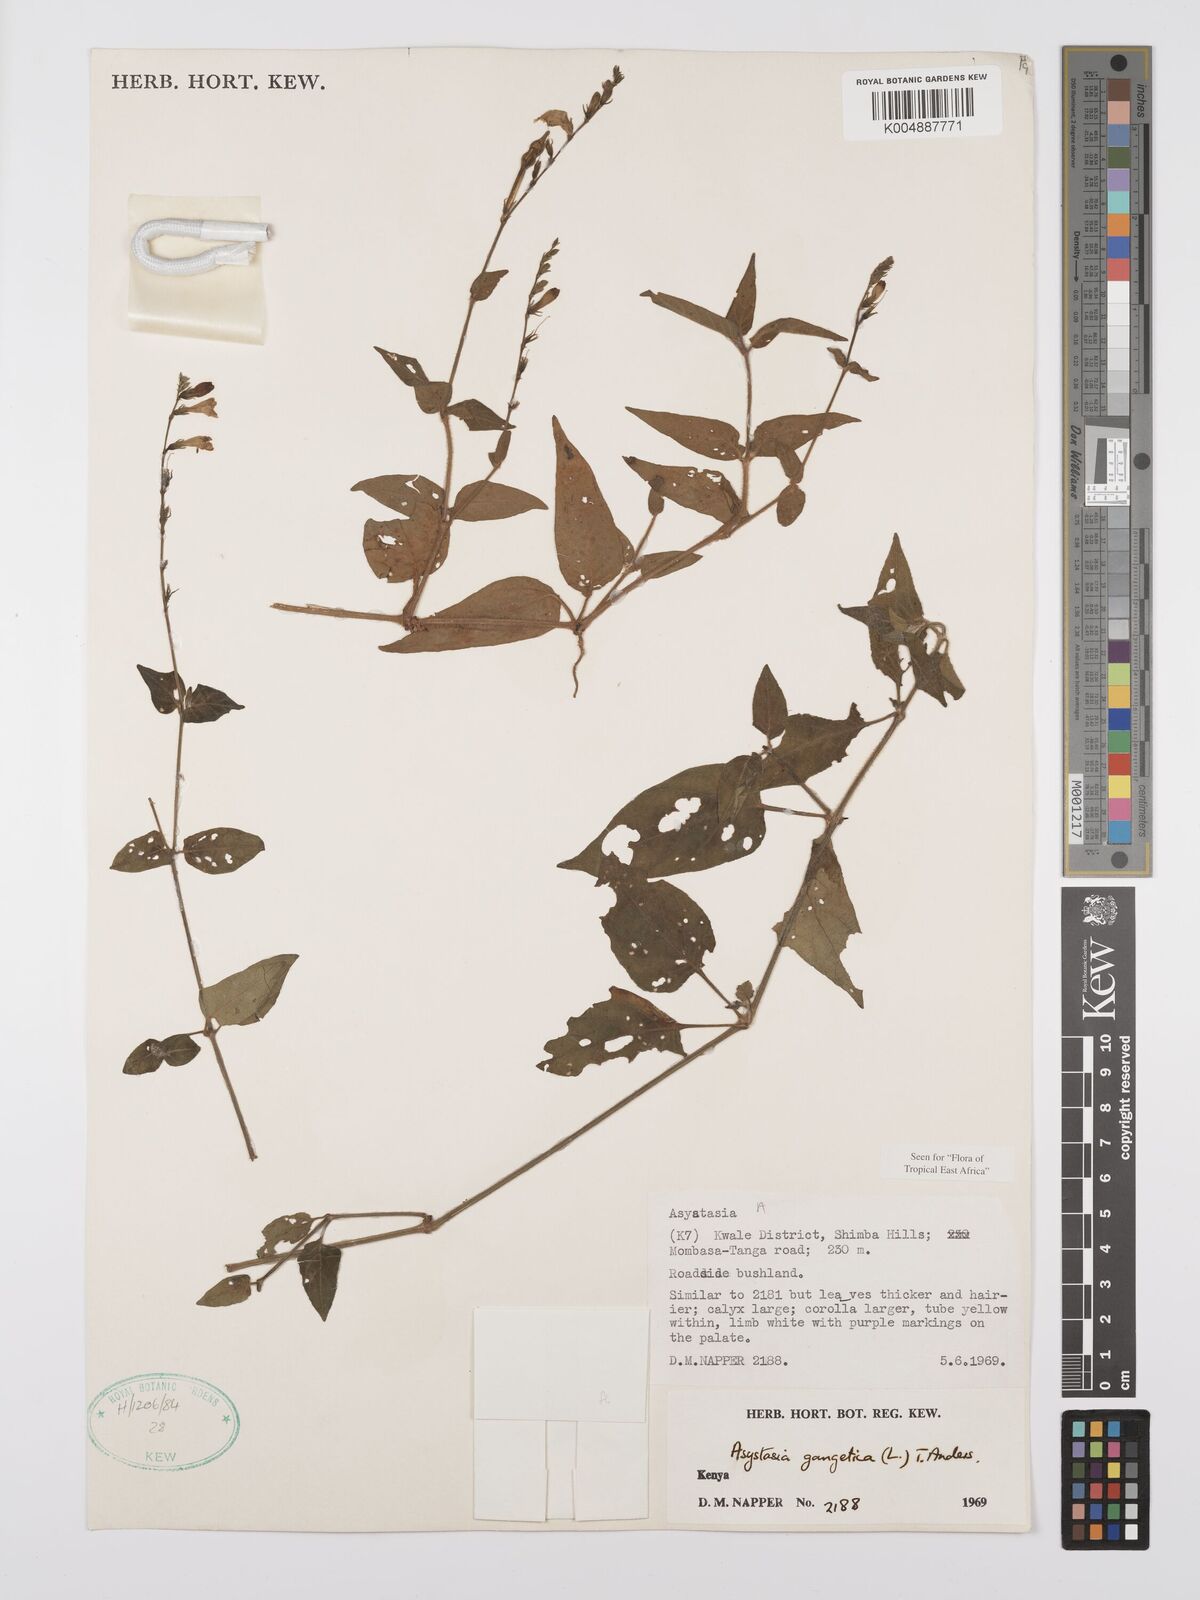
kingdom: Plantae
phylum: Tracheophyta
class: Magnoliopsida
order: Lamiales
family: Acanthaceae
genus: Asystasia
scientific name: Asystasia gangetica
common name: Chinese violet
